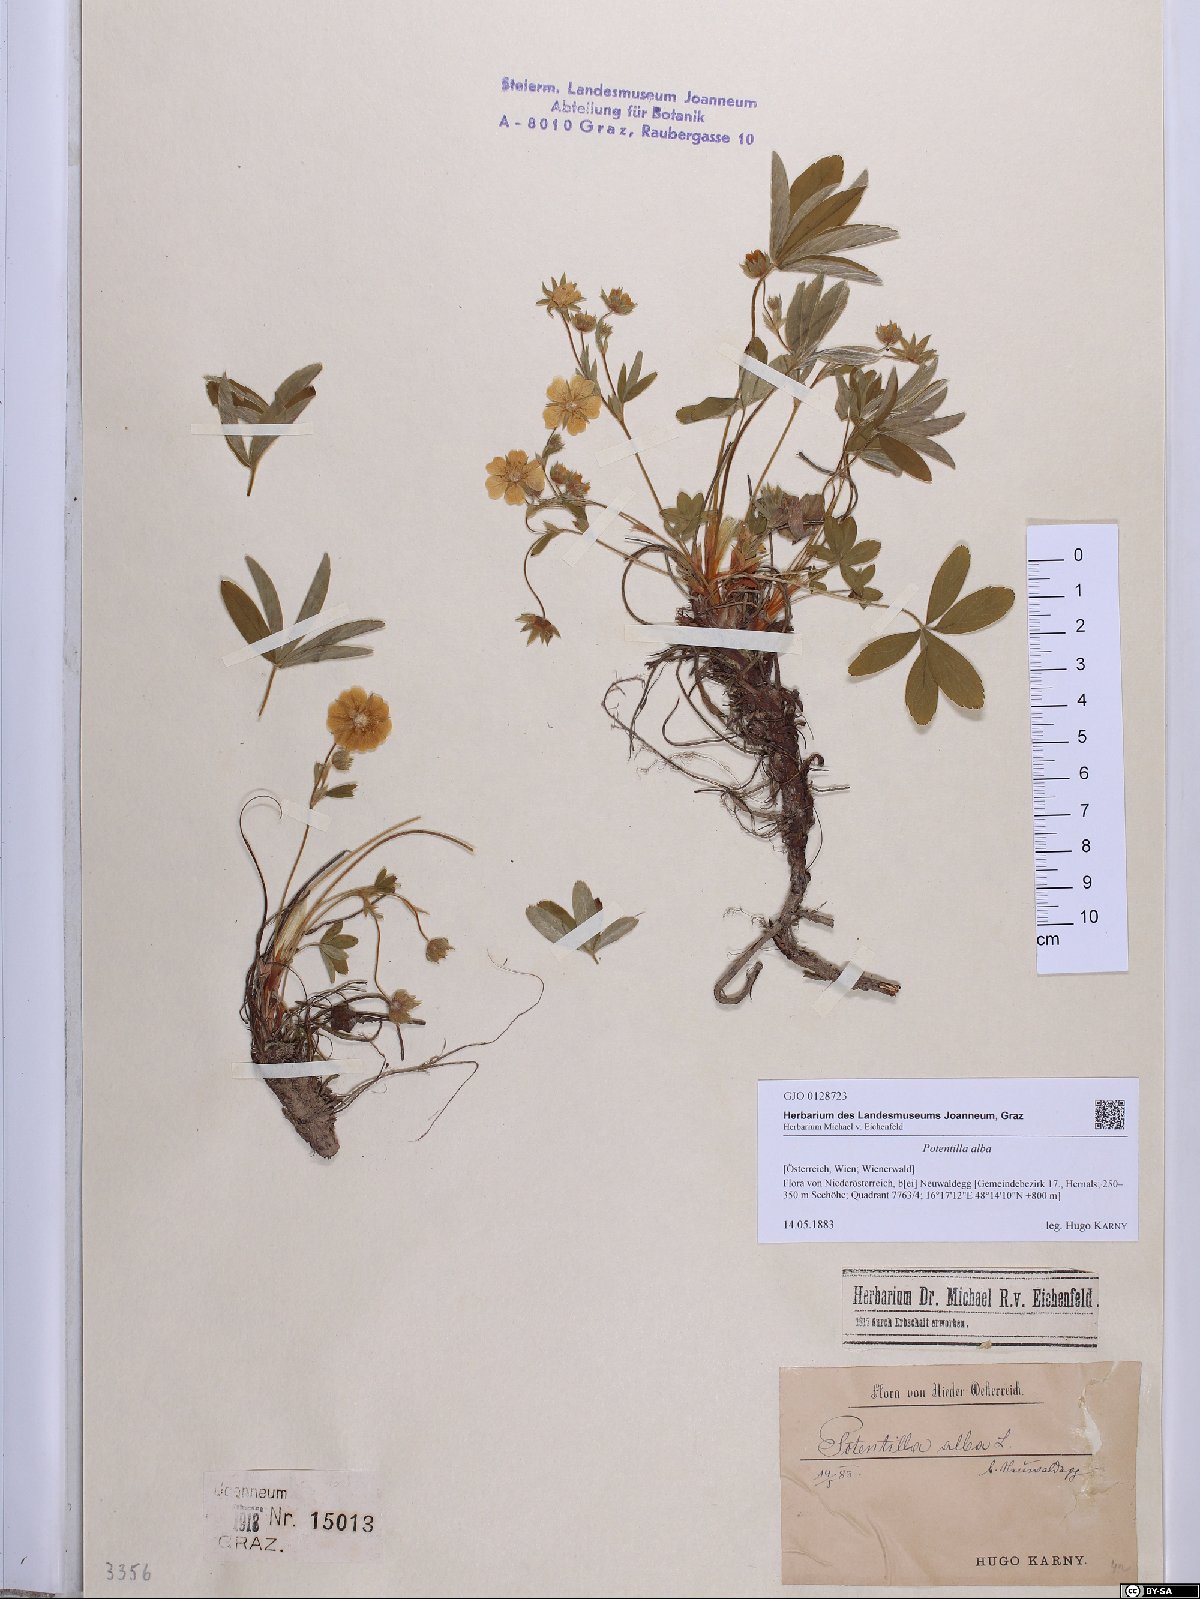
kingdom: Plantae
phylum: Tracheophyta
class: Magnoliopsida
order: Rosales
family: Rosaceae
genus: Potentilla
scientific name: Potentilla alba
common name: White cinquefoil
